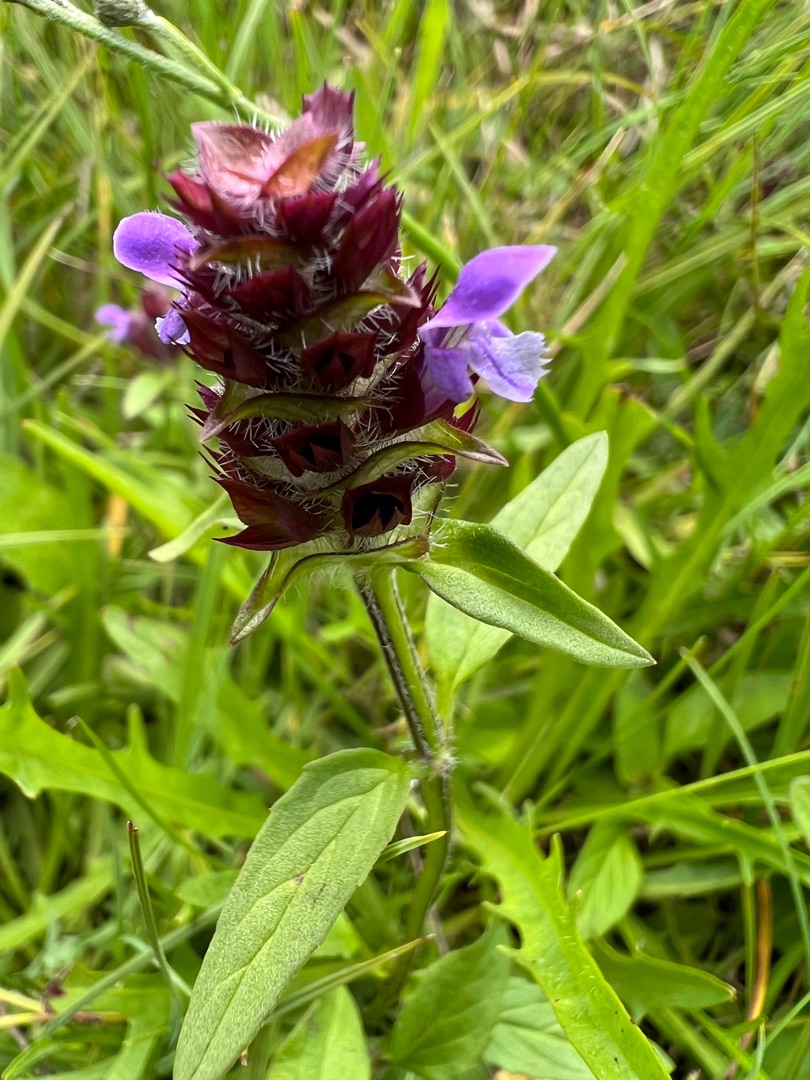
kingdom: Plantae
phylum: Tracheophyta
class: Magnoliopsida
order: Lamiales
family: Lamiaceae
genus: Prunella
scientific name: Prunella vulgaris
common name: Almindelig brunelle
